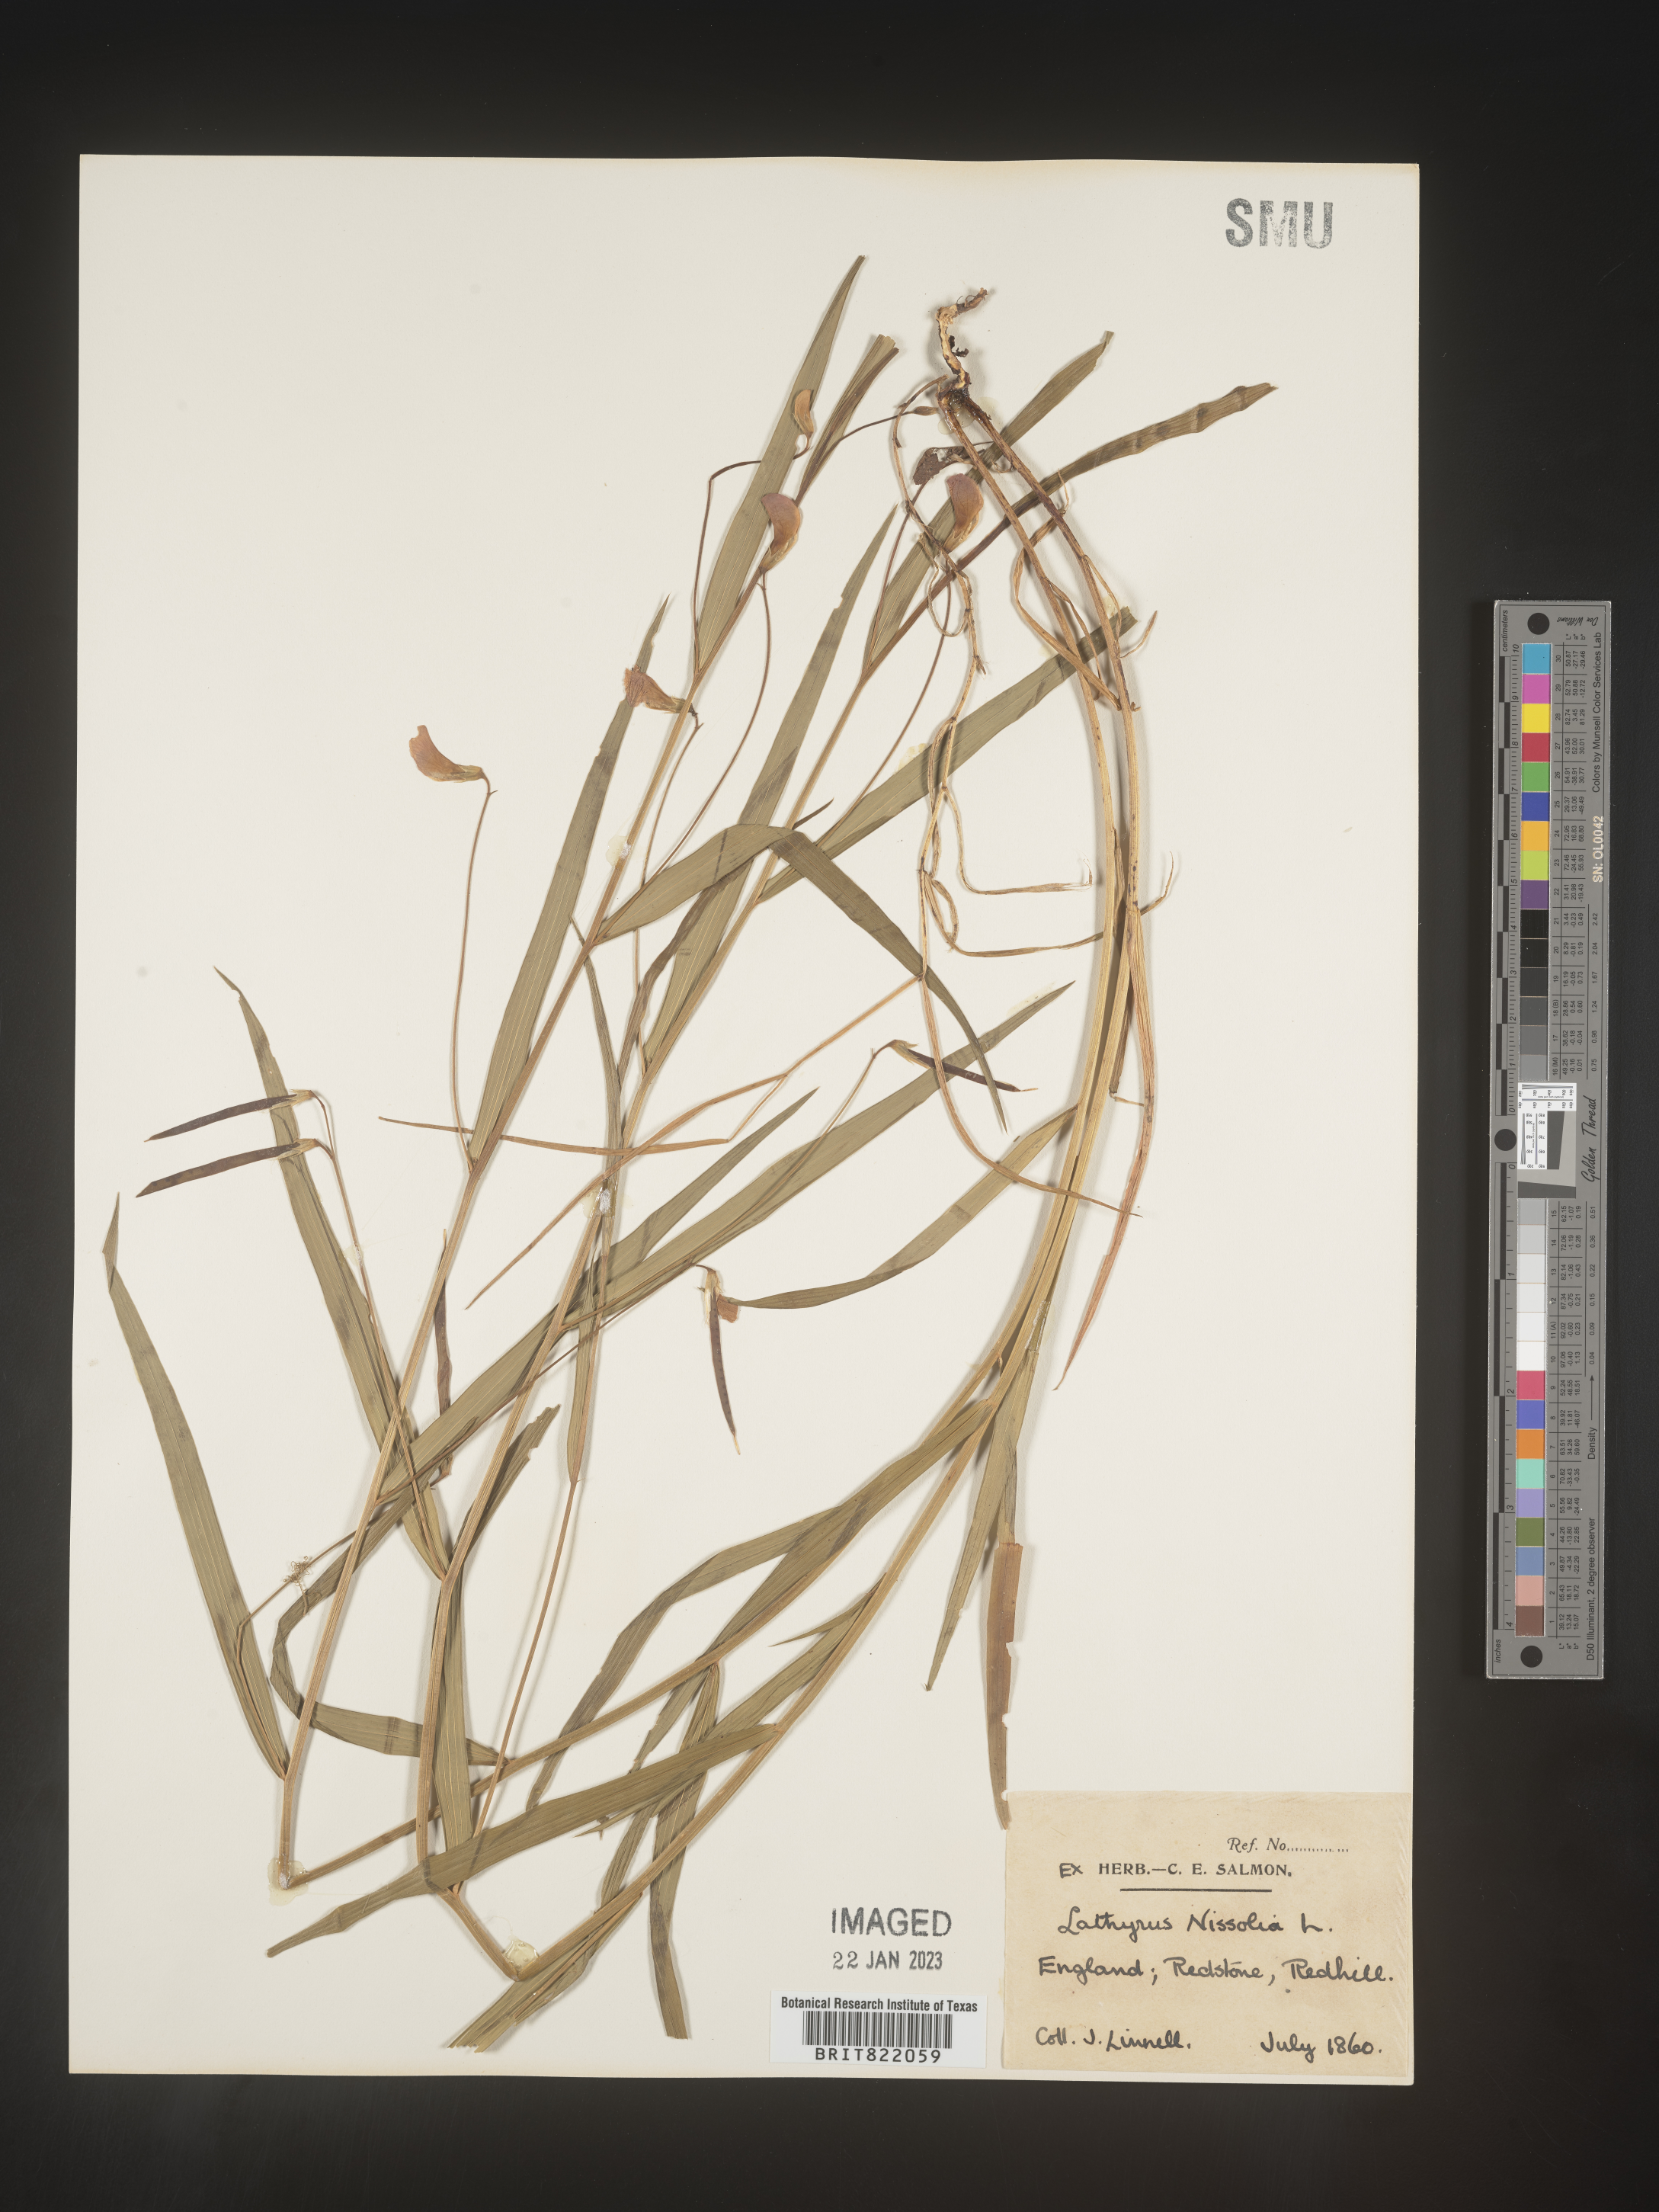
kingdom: Plantae
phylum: Tracheophyta
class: Magnoliopsida
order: Fabales
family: Fabaceae
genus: Lathyrus
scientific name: Lathyrus
